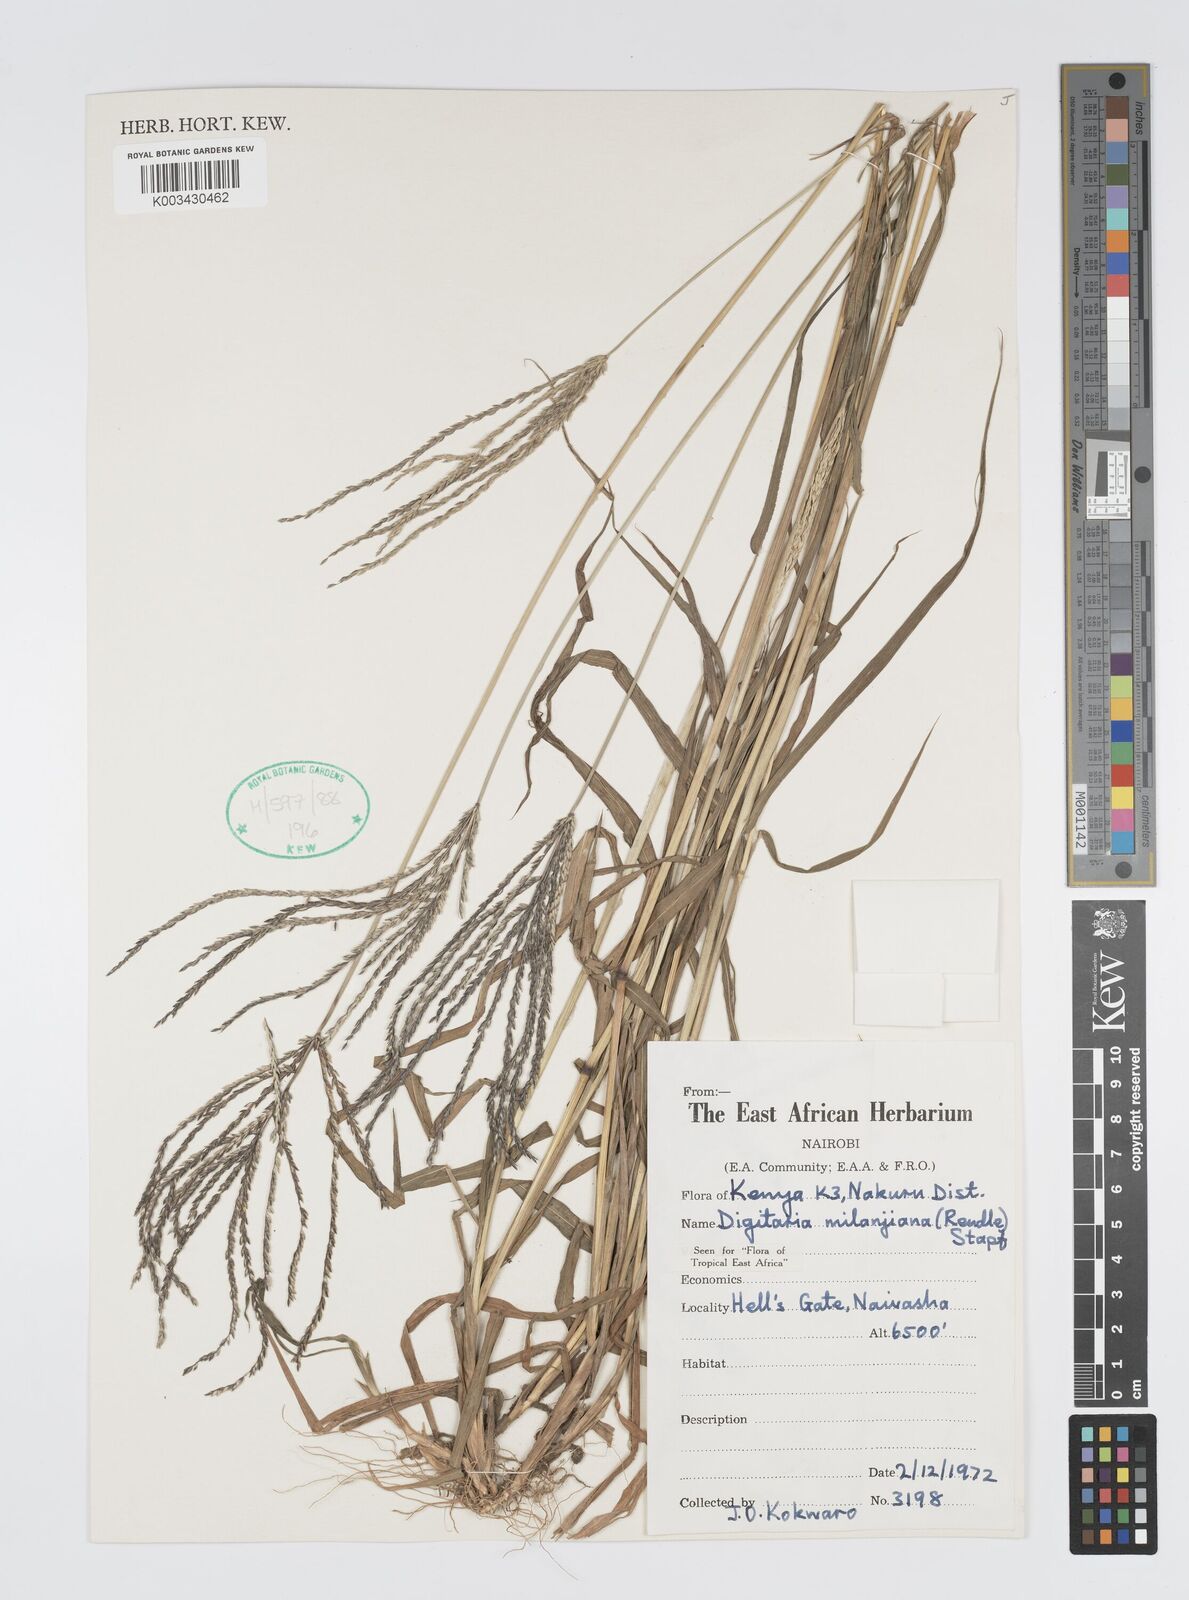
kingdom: Plantae
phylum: Tracheophyta
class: Liliopsida
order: Poales
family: Poaceae
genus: Digitaria
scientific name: Digitaria milanjiana
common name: Madagascar crabgrass
